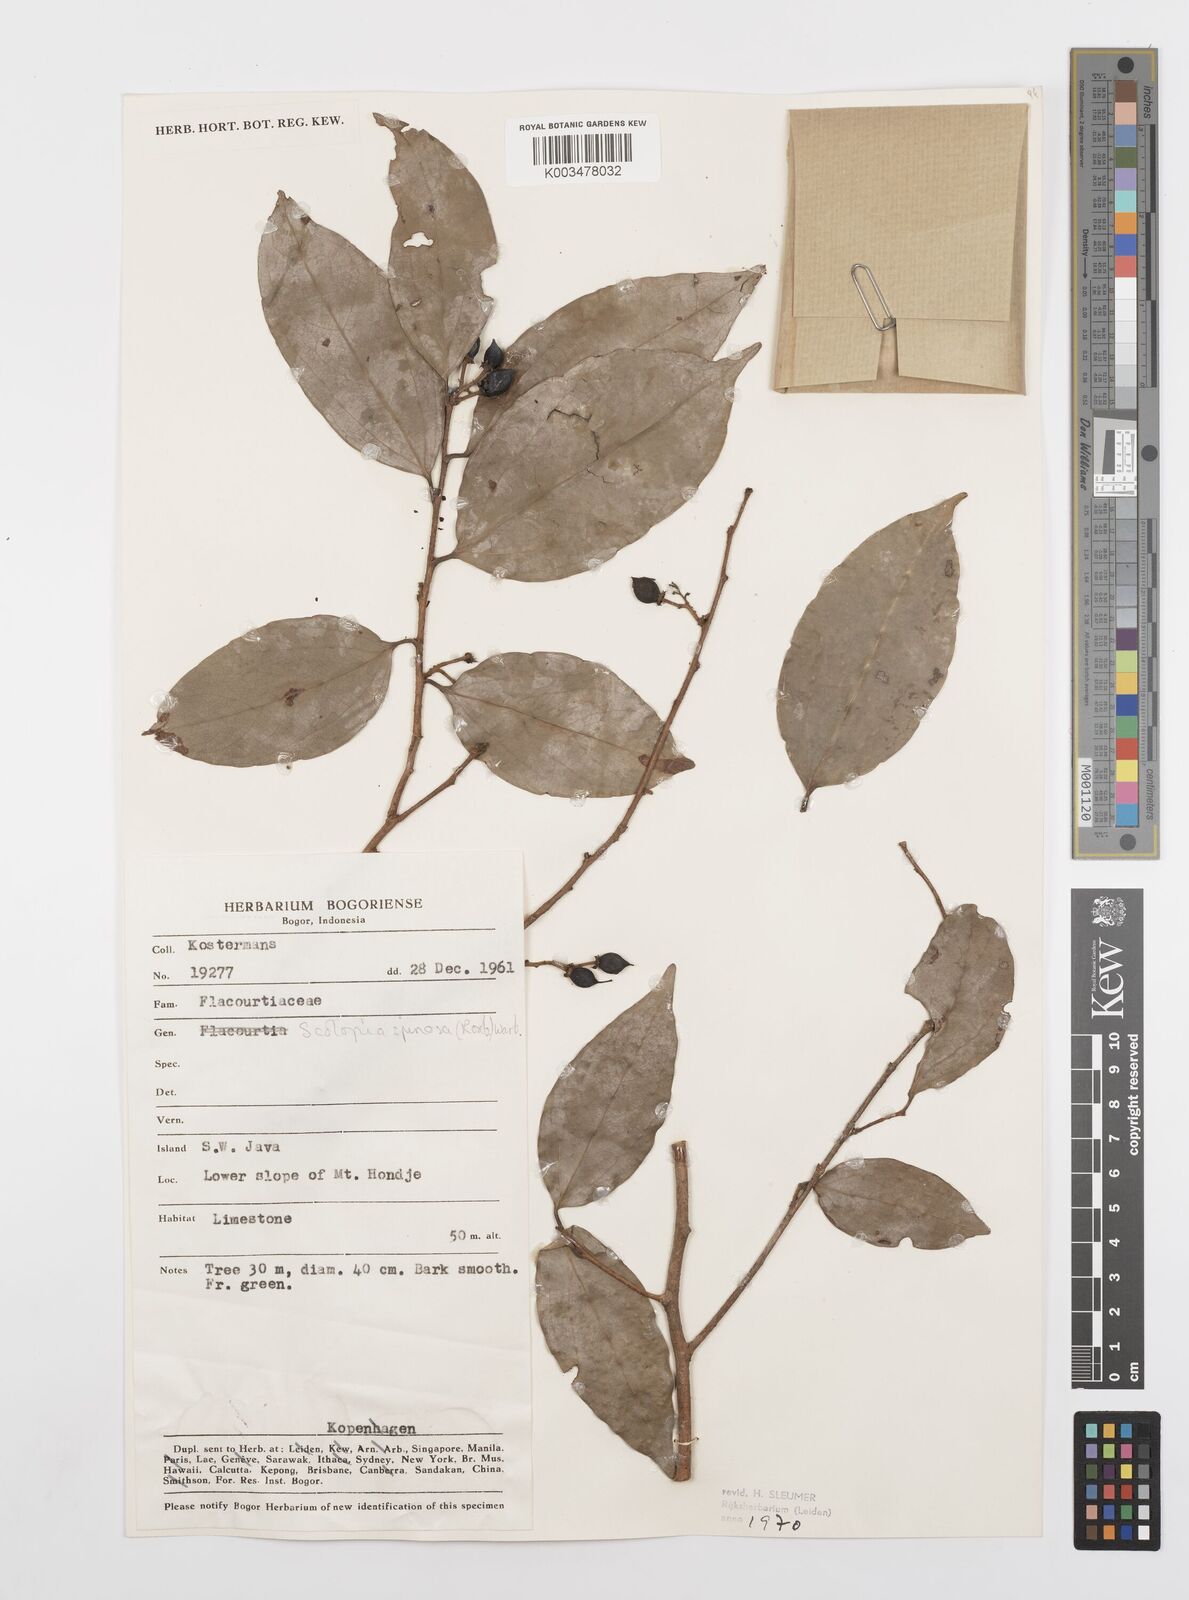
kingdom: Plantae
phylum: Tracheophyta
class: Magnoliopsida
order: Malpighiales
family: Salicaceae
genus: Scolopia
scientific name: Scolopia spinosa
